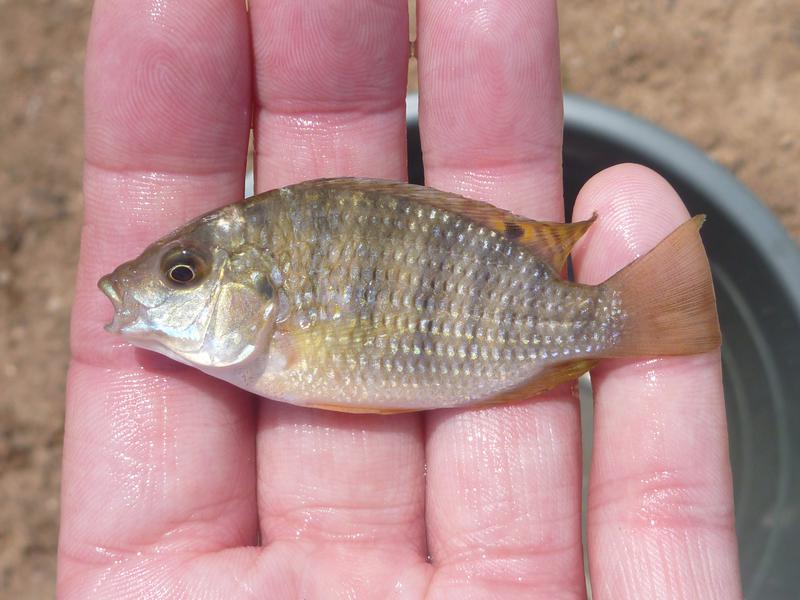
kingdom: Animalia
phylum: Chordata
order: Perciformes
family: Cichlidae
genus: Coptodon
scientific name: Coptodon rendalli
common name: Redbreast tilapia
